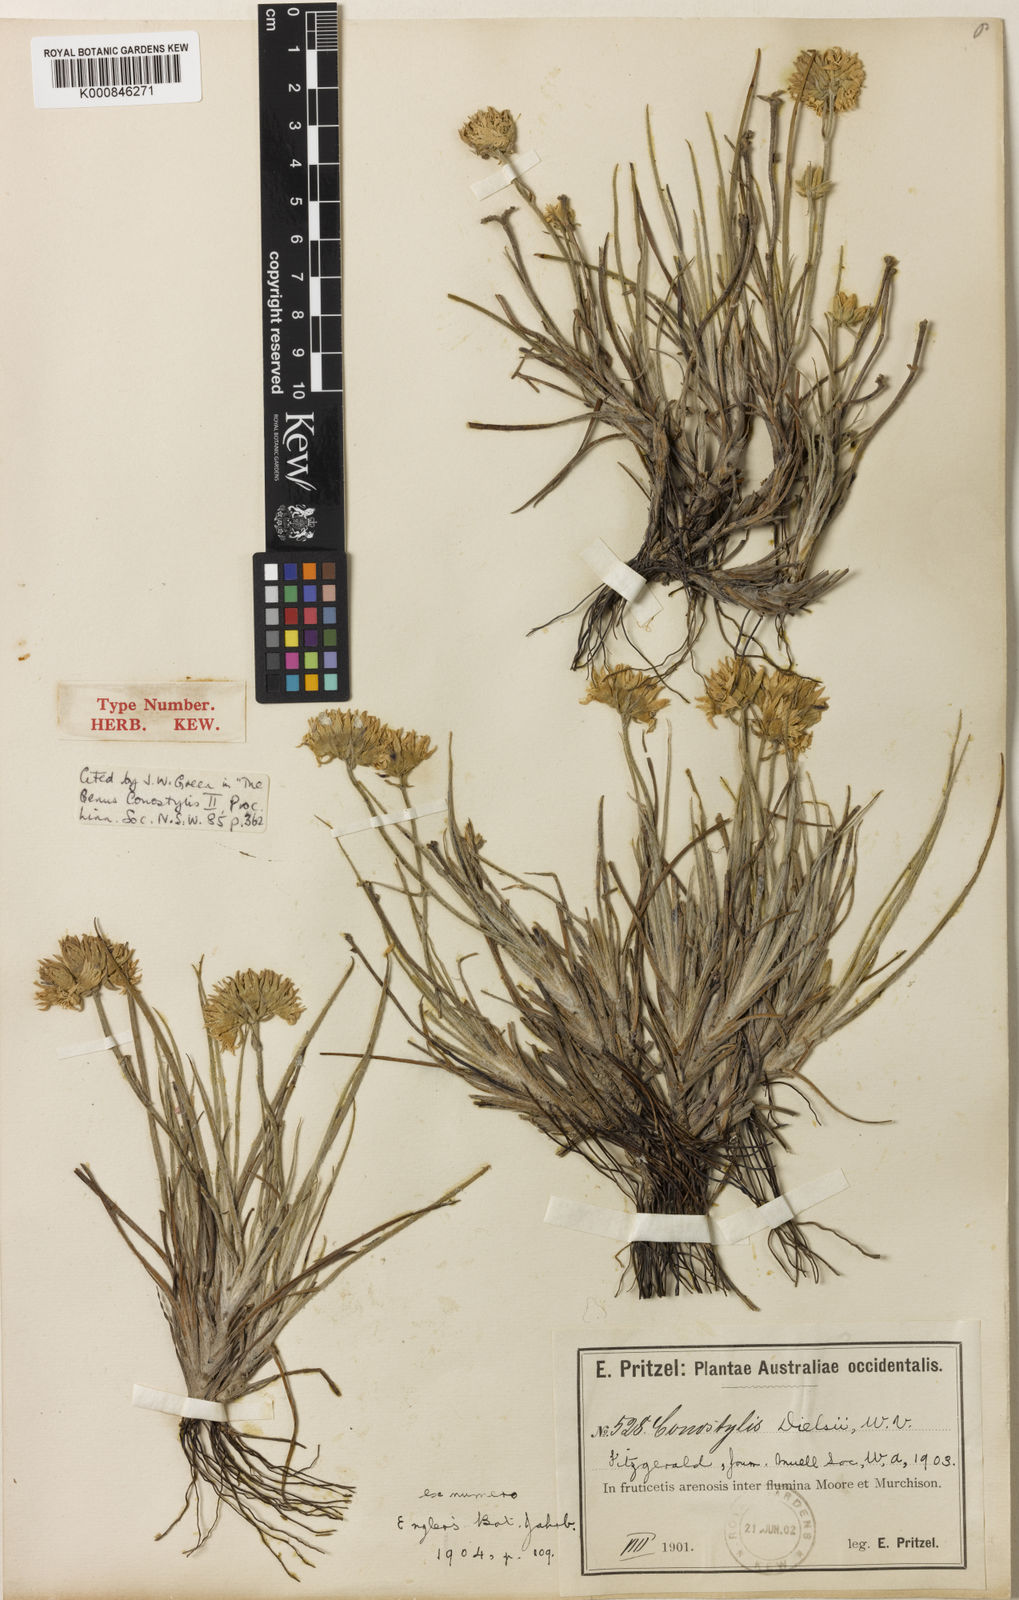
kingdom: Plantae
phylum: Tracheophyta
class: Liliopsida
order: Commelinales
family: Haemodoraceae
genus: Conostylis
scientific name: Conostylis dielsii
